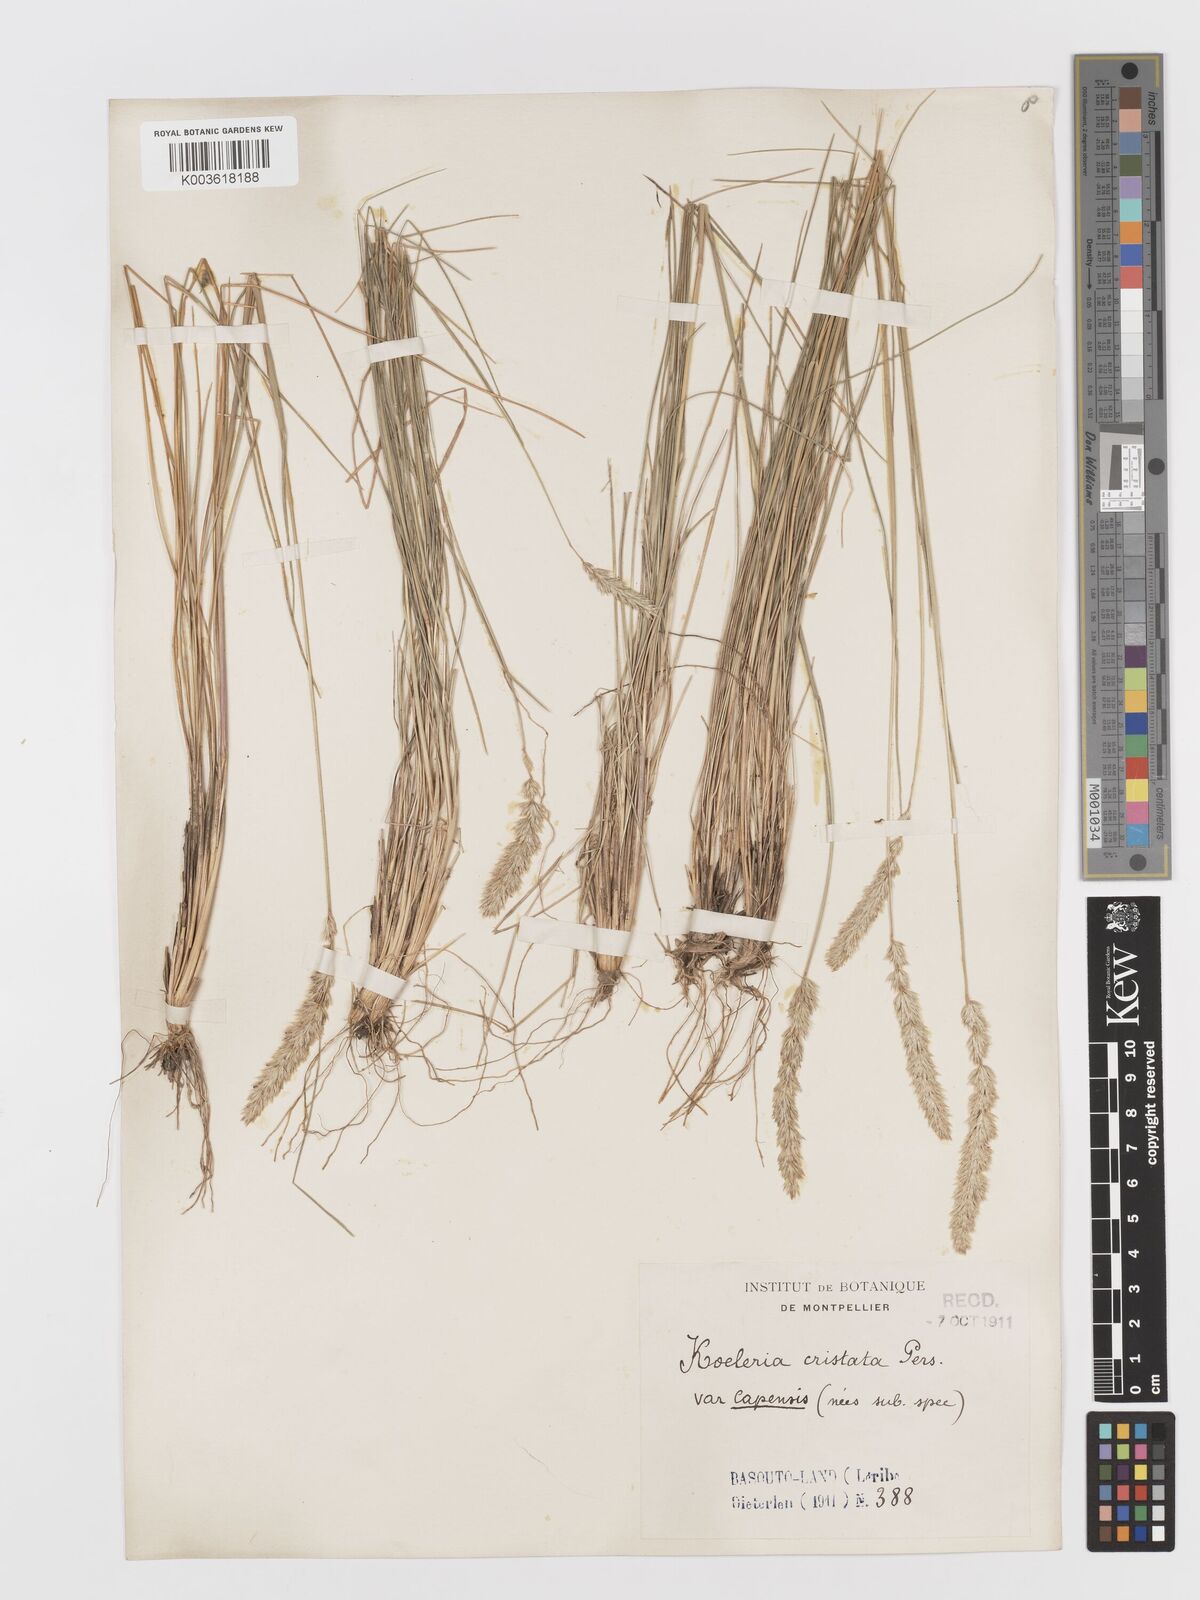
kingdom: Plantae
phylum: Tracheophyta
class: Liliopsida
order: Poales
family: Poaceae
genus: Koeleria
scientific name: Koeleria capensis
